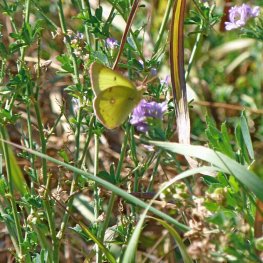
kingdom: Animalia
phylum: Arthropoda
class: Insecta
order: Lepidoptera
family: Pieridae
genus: Colias
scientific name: Colias philodice
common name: Clouded Sulphur
